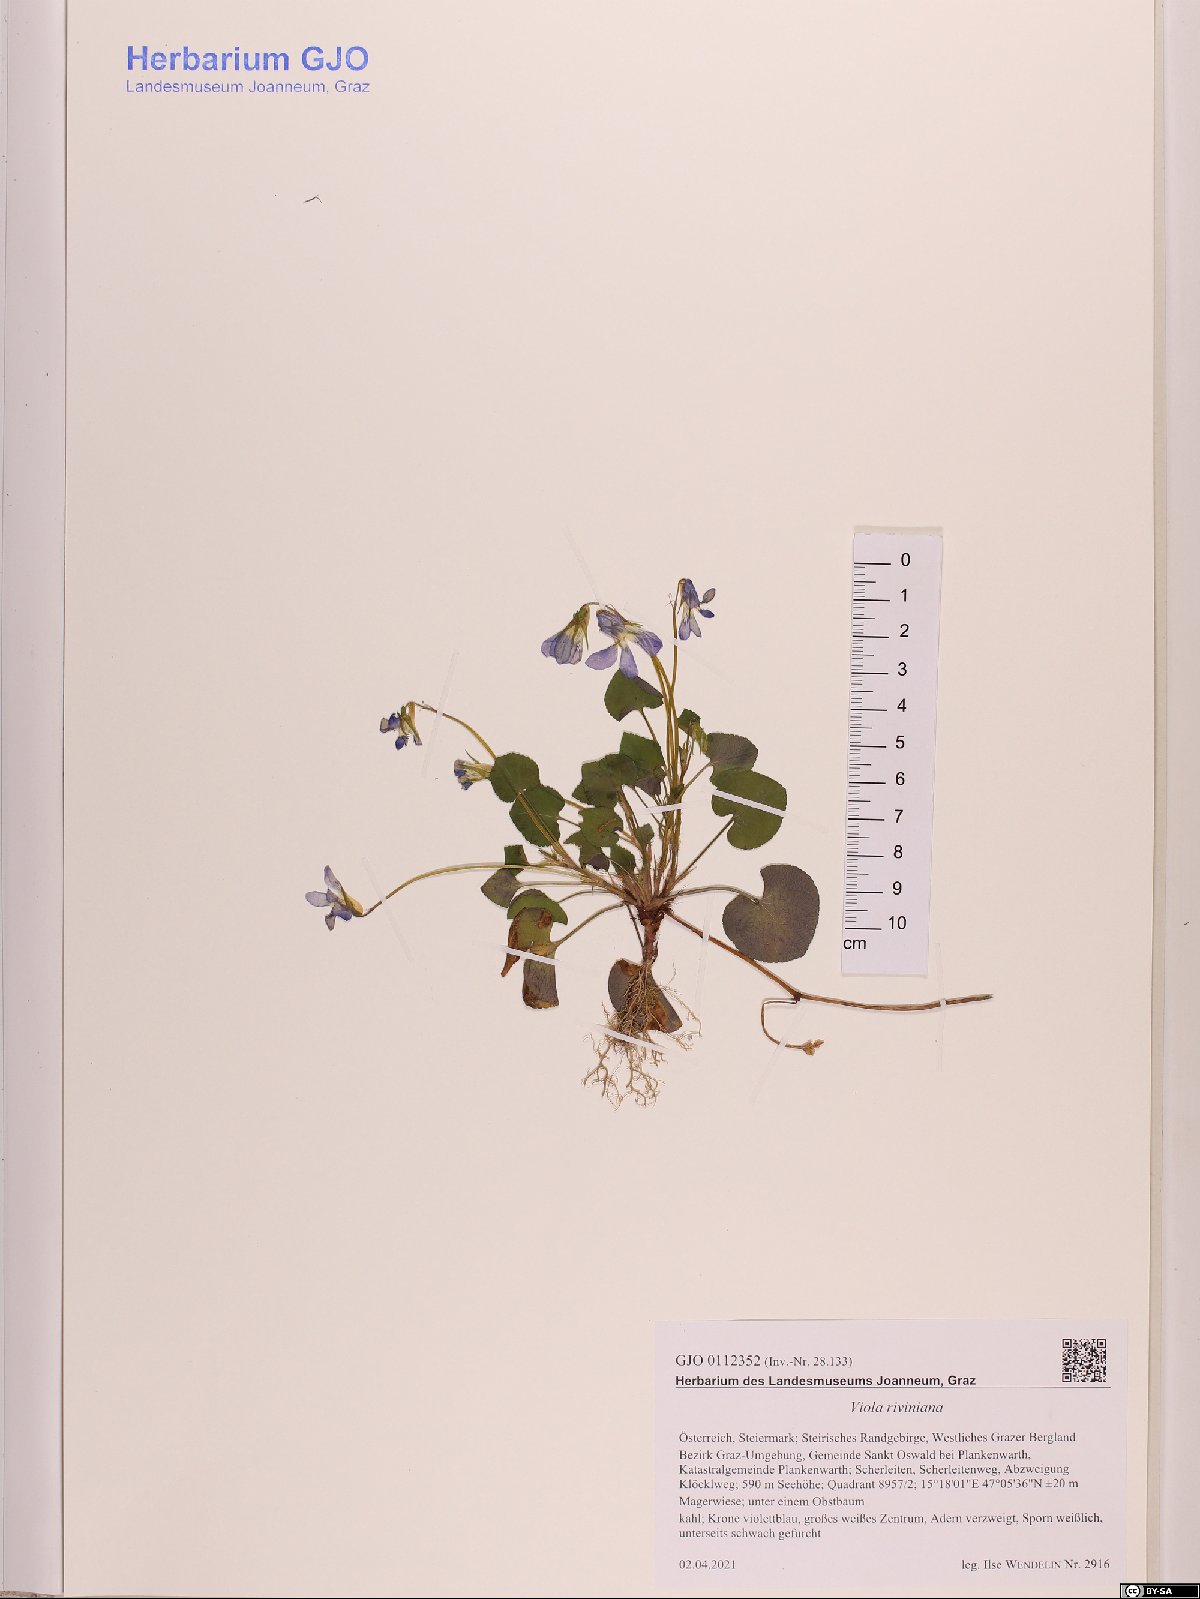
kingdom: Plantae
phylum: Tracheophyta
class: Magnoliopsida
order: Malpighiales
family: Violaceae
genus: Viola
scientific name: Viola riviniana
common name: Common dog-violet
